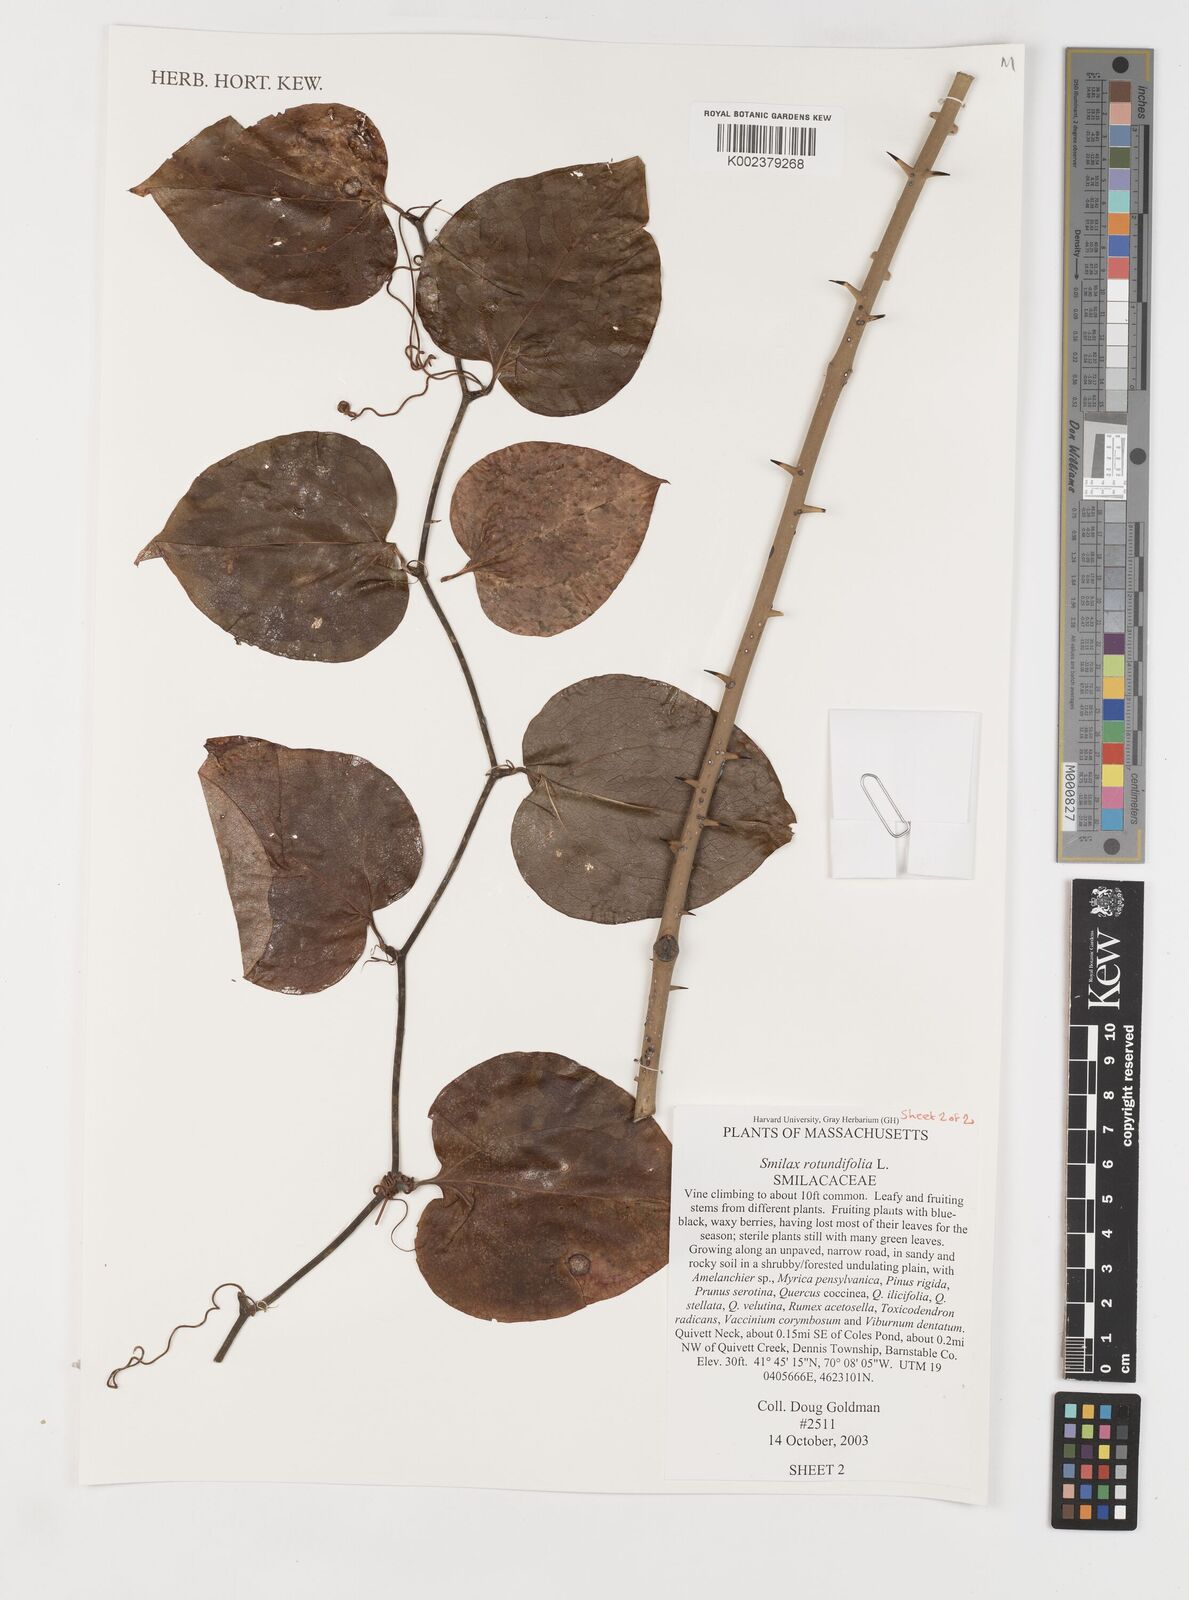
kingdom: Plantae
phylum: Tracheophyta
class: Liliopsida
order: Liliales
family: Smilacaceae
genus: Smilax
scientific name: Smilax rotundifolia
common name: Bullbriar
